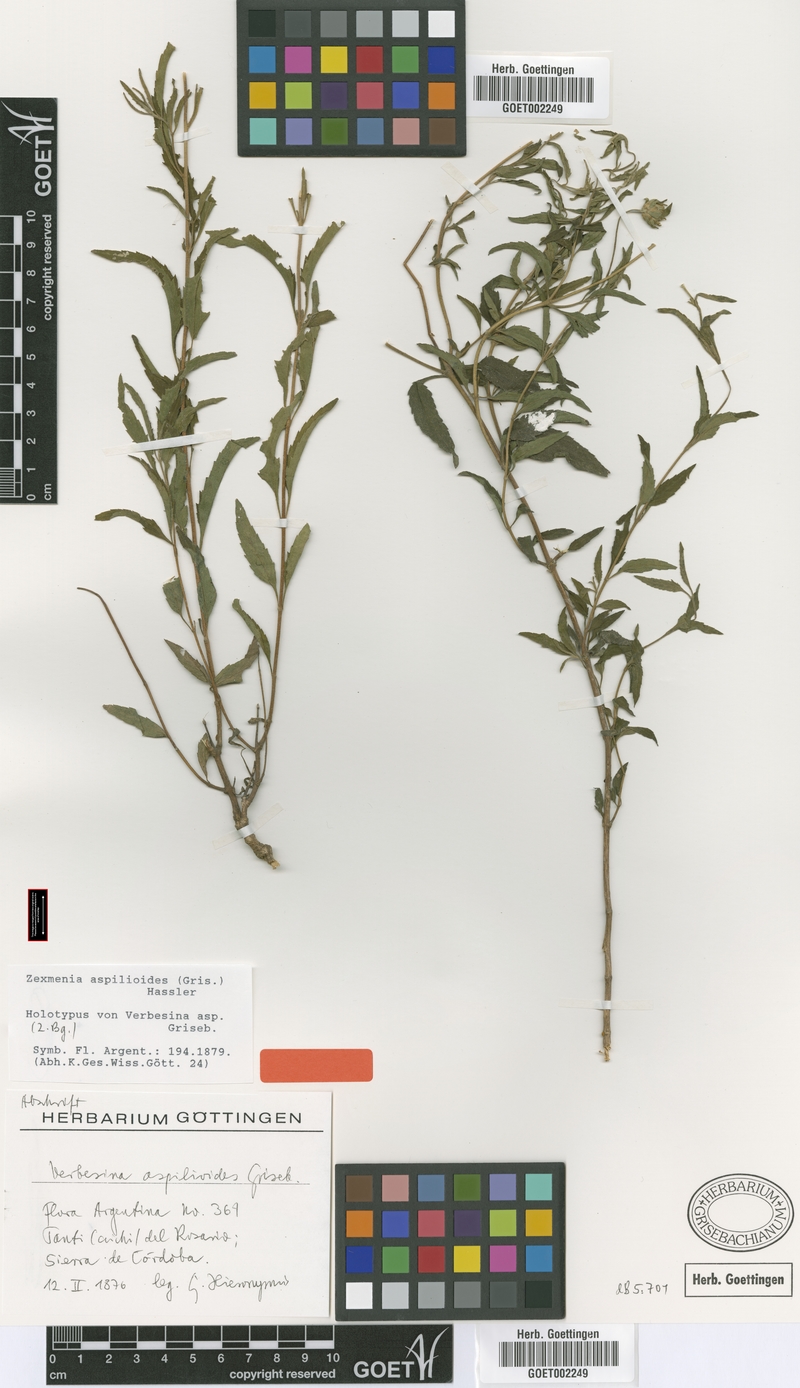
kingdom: Plantae
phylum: Tracheophyta
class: Magnoliopsida
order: Asterales
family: Asteraceae
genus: Dimerostemma
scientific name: Dimerostemma aspilioides
